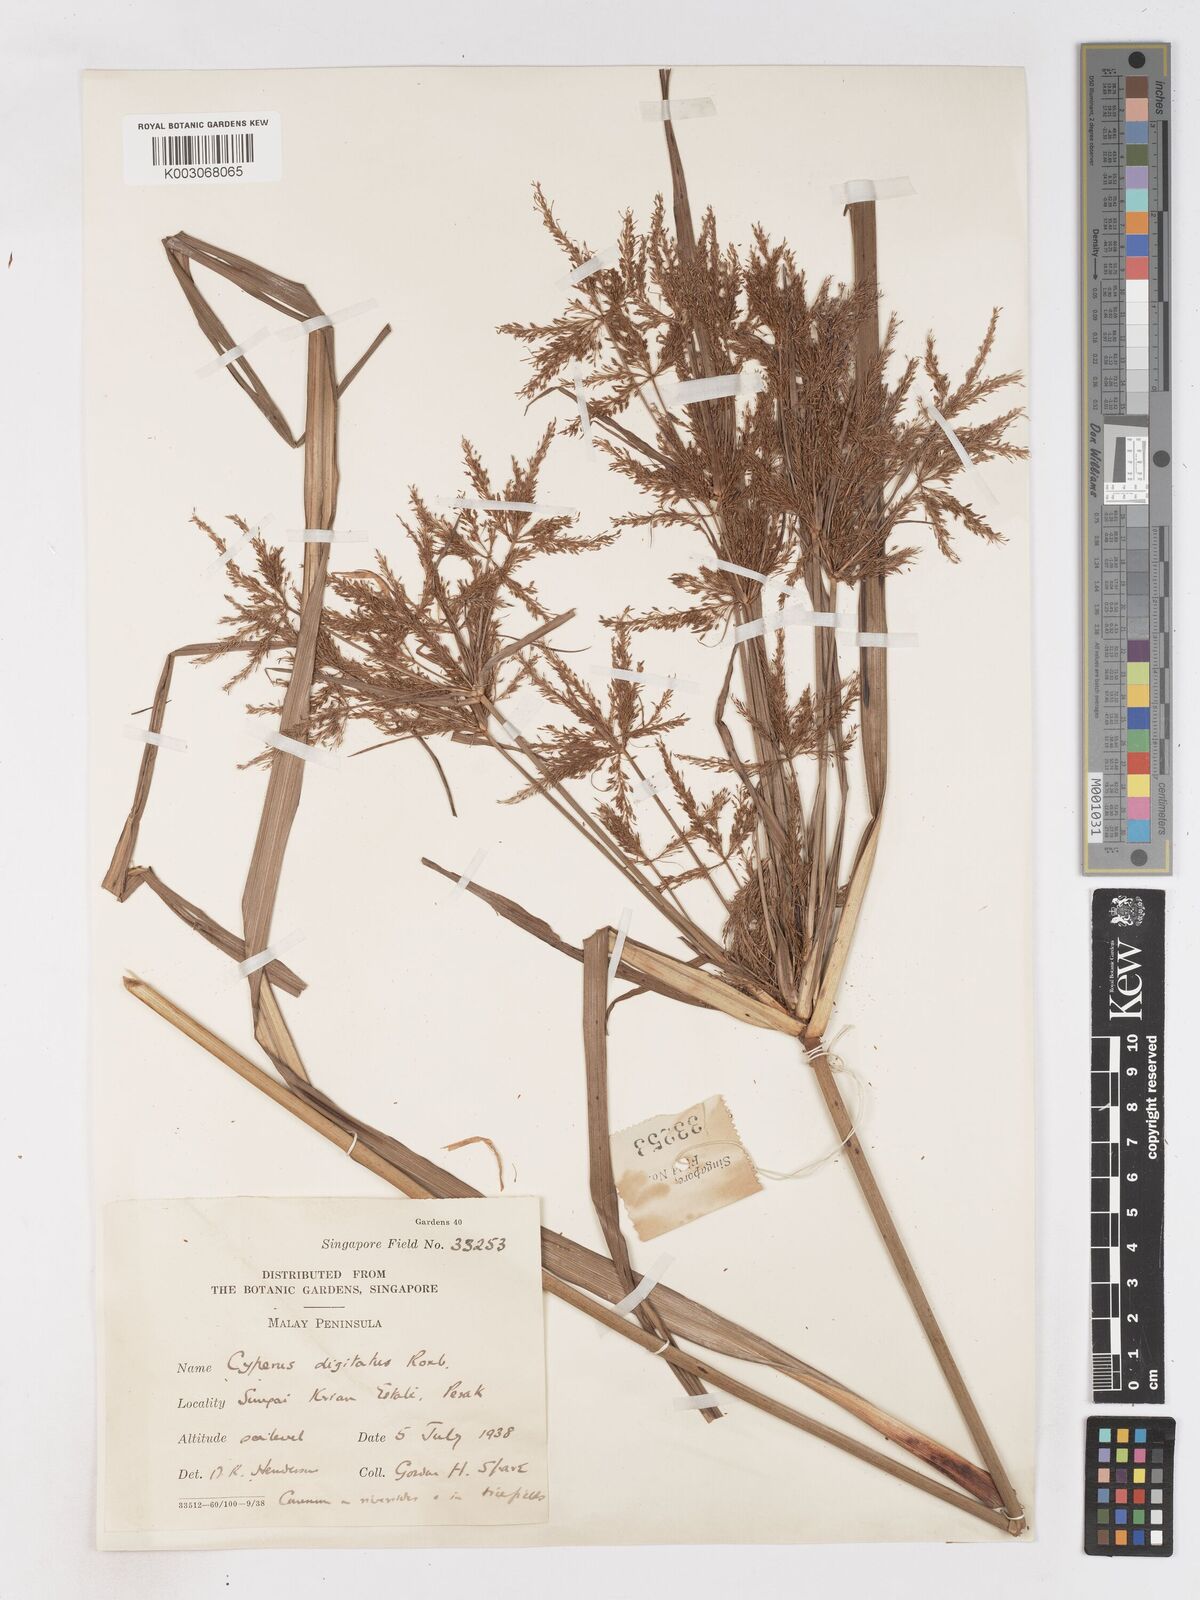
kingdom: Plantae
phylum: Tracheophyta
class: Liliopsida
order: Poales
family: Cyperaceae
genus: Cyperus
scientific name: Cyperus digitatus
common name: Finger flatsedge
